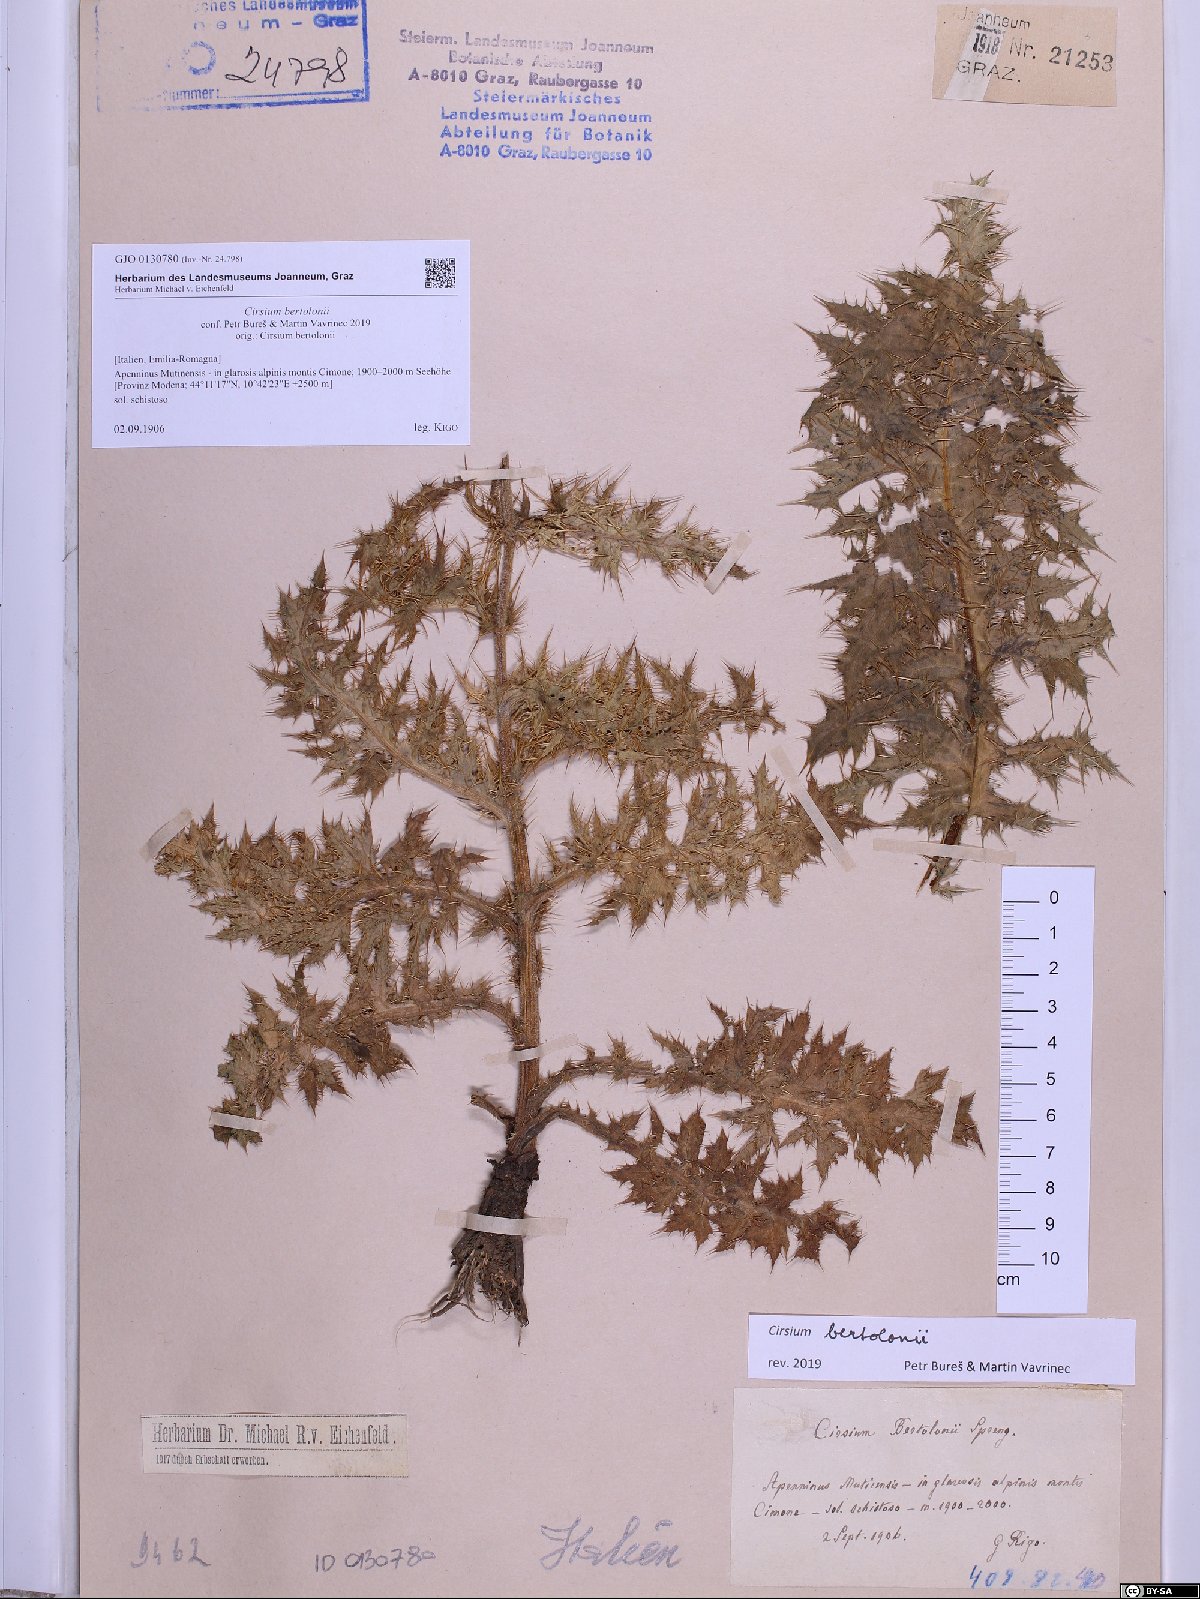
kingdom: Plantae
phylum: Tracheophyta
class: Magnoliopsida
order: Asterales
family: Asteraceae
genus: Cirsium
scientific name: Cirsium bertolonii
